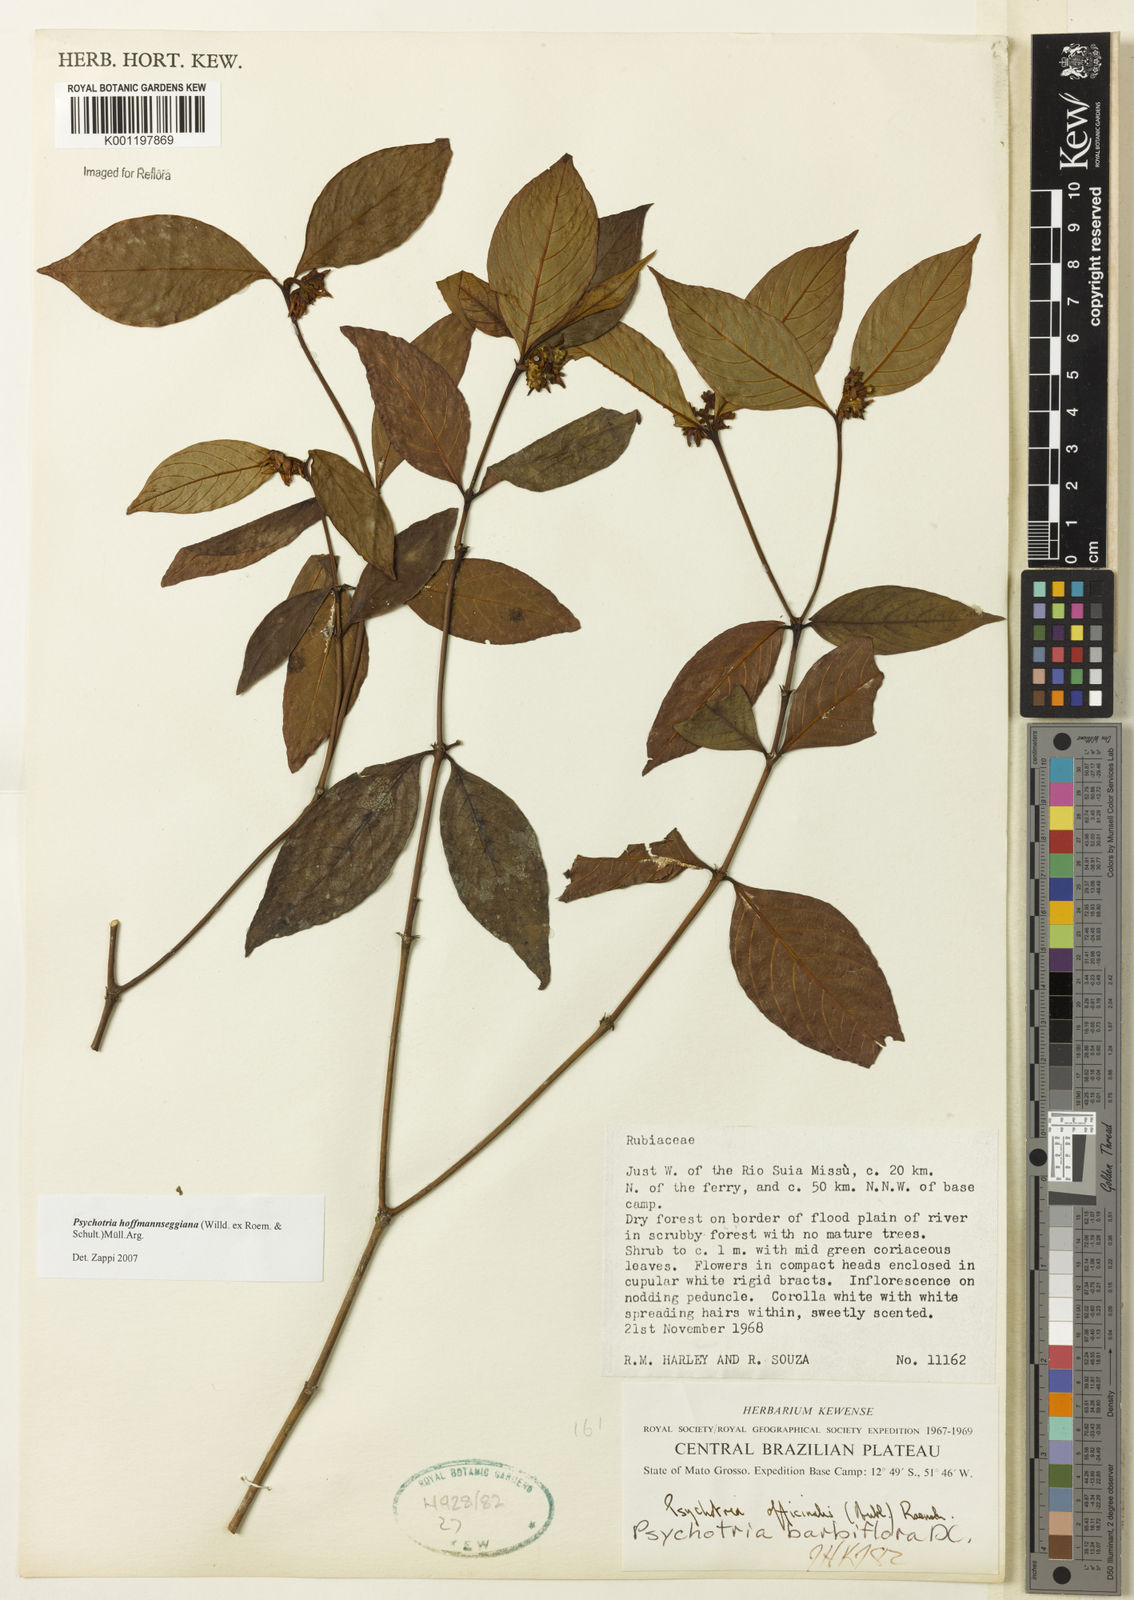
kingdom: Plantae
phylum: Tracheophyta
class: Magnoliopsida
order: Gentianales
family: Rubiaceae
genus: Psychotria
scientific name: Psychotria
